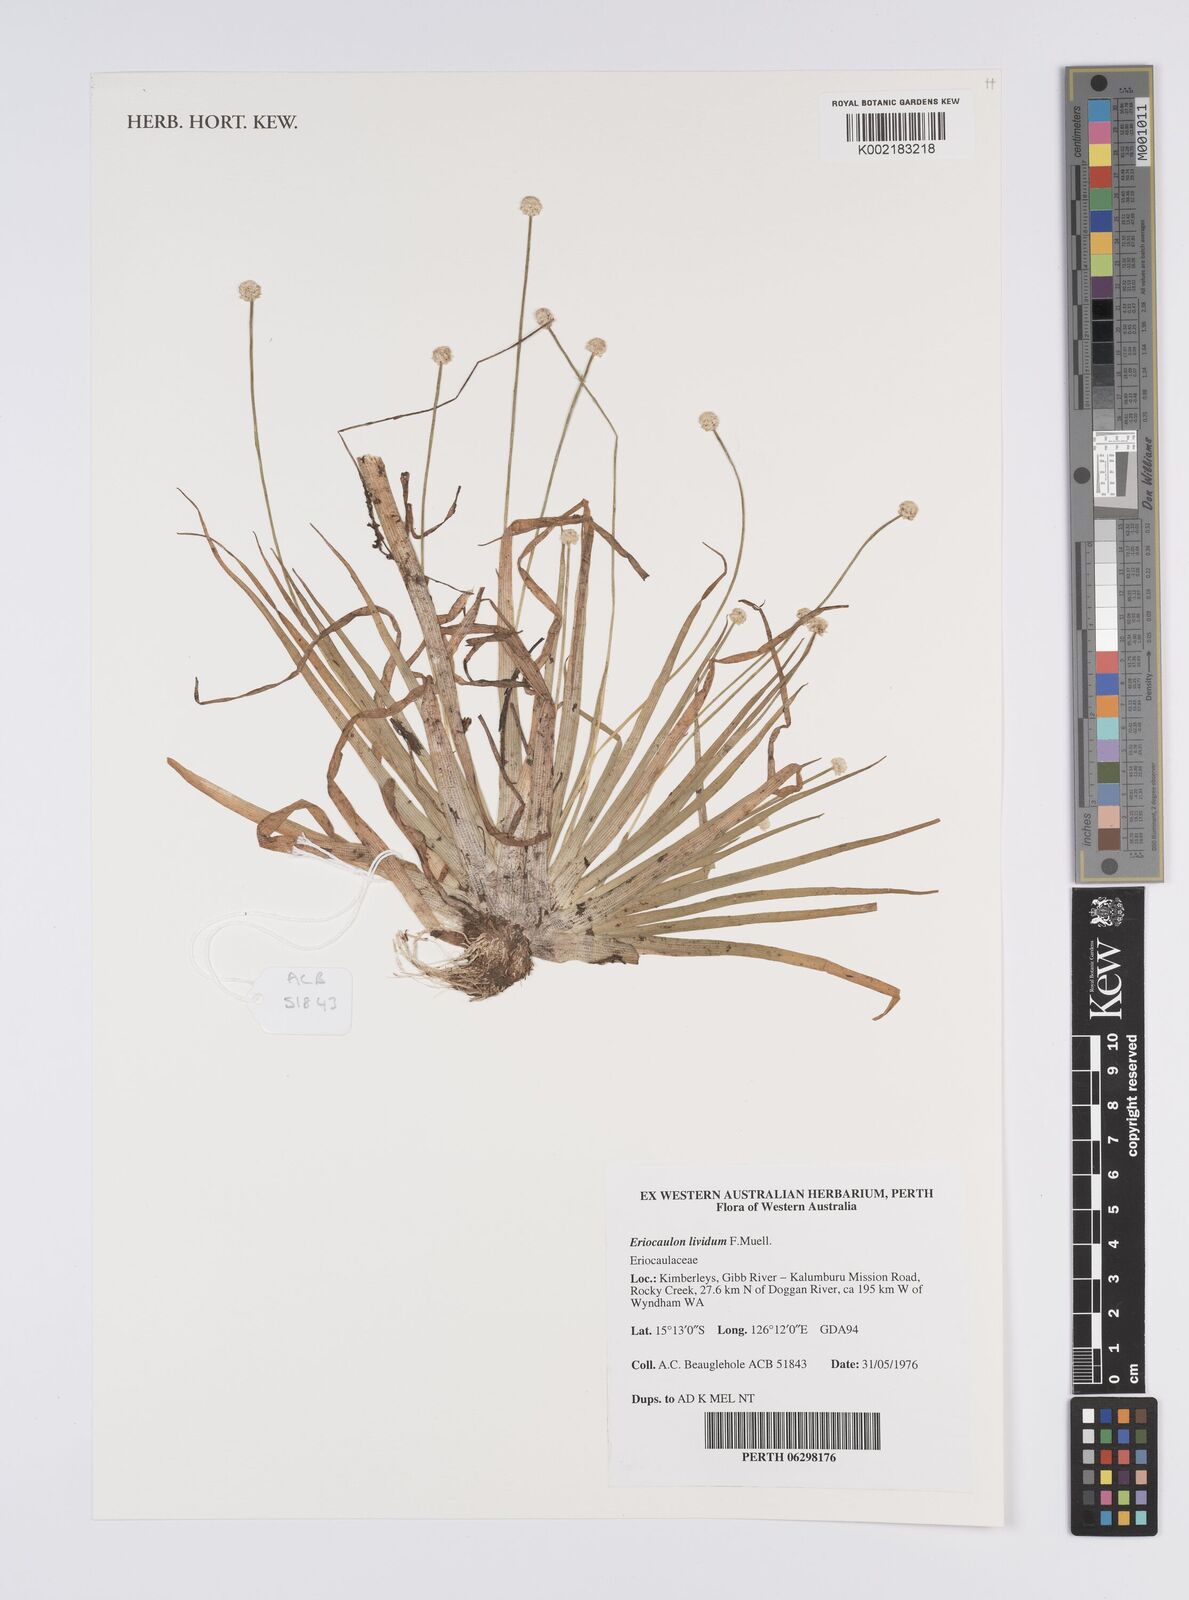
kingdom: Plantae
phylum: Tracheophyta
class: Liliopsida
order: Poales
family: Eriocaulaceae
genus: Eriocaulon
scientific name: Eriocaulon lividum
